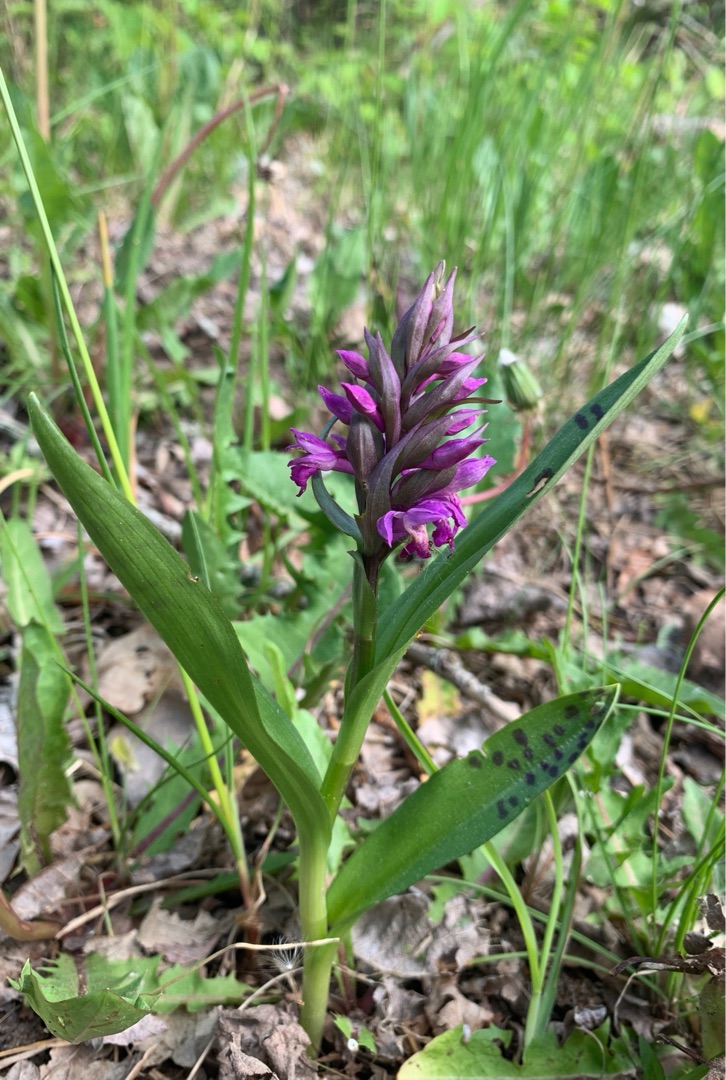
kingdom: Plantae
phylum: Tracheophyta
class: Liliopsida
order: Asparagales
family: Orchidaceae
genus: Dactylorhiza
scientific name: Dactylorhiza majalis
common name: Maj-gøgeurt
